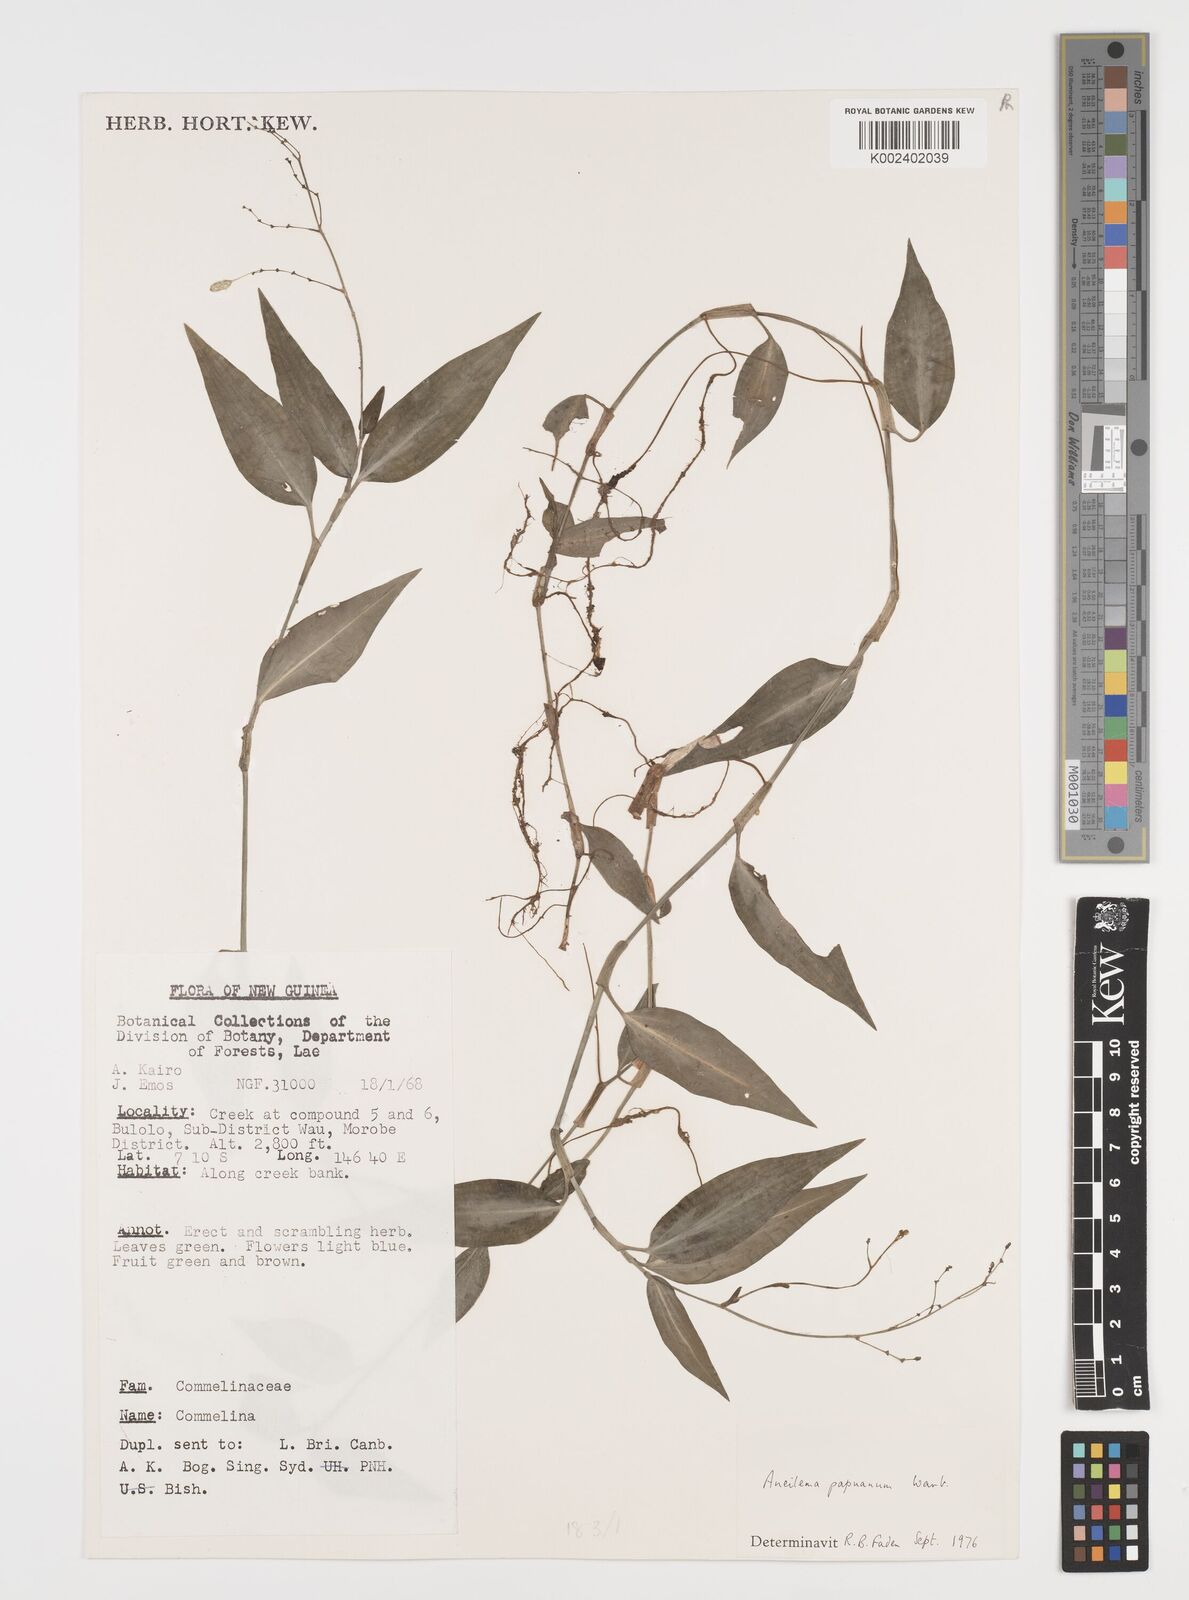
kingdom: Plantae
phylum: Tracheophyta
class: Liliopsida
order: Commelinales
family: Commelinaceae
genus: Aneilema
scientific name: Aneilema acuminatum
